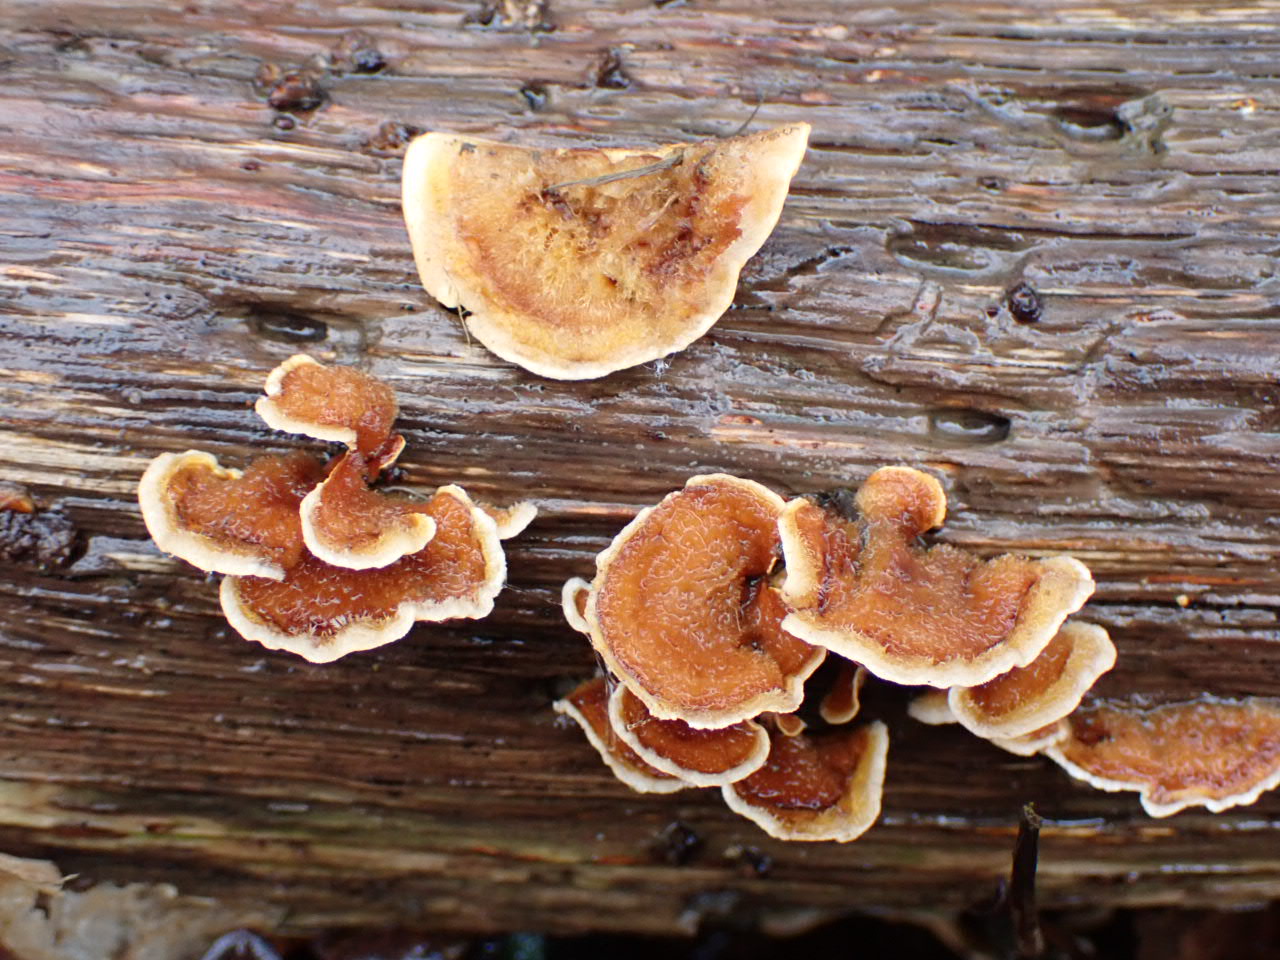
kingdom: Fungi
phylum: Basidiomycota
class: Agaricomycetes
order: Russulales
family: Stereaceae
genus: Stereum
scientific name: Stereum hirsutum
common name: håret lædersvamp
